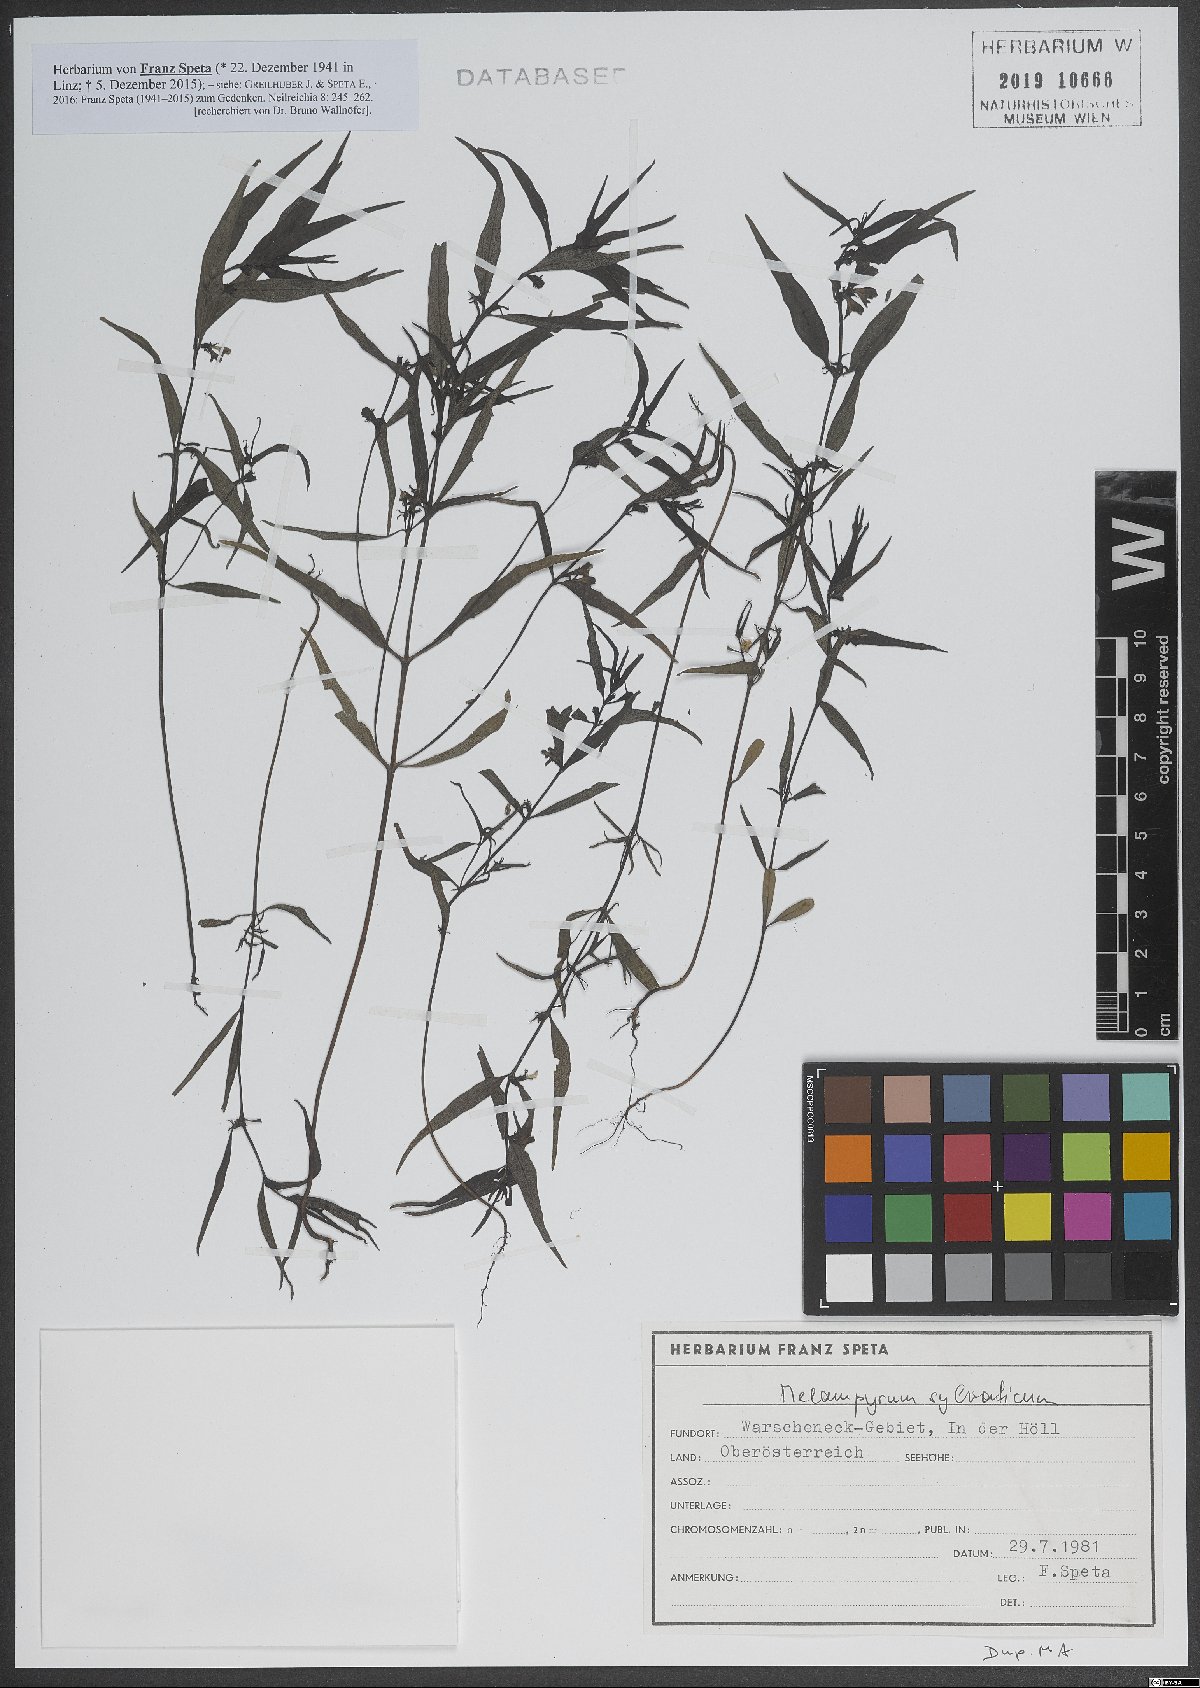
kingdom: Plantae
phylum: Tracheophyta
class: Magnoliopsida
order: Lamiales
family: Orobanchaceae
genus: Melampyrum
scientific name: Melampyrum sylvaticum
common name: Small cow-wheat
